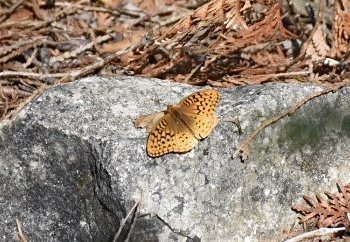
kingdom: Animalia
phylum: Arthropoda
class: Insecta
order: Lepidoptera
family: Nymphalidae
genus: Speyeria
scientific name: Speyeria cybele
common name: Great Spangled Fritillary
